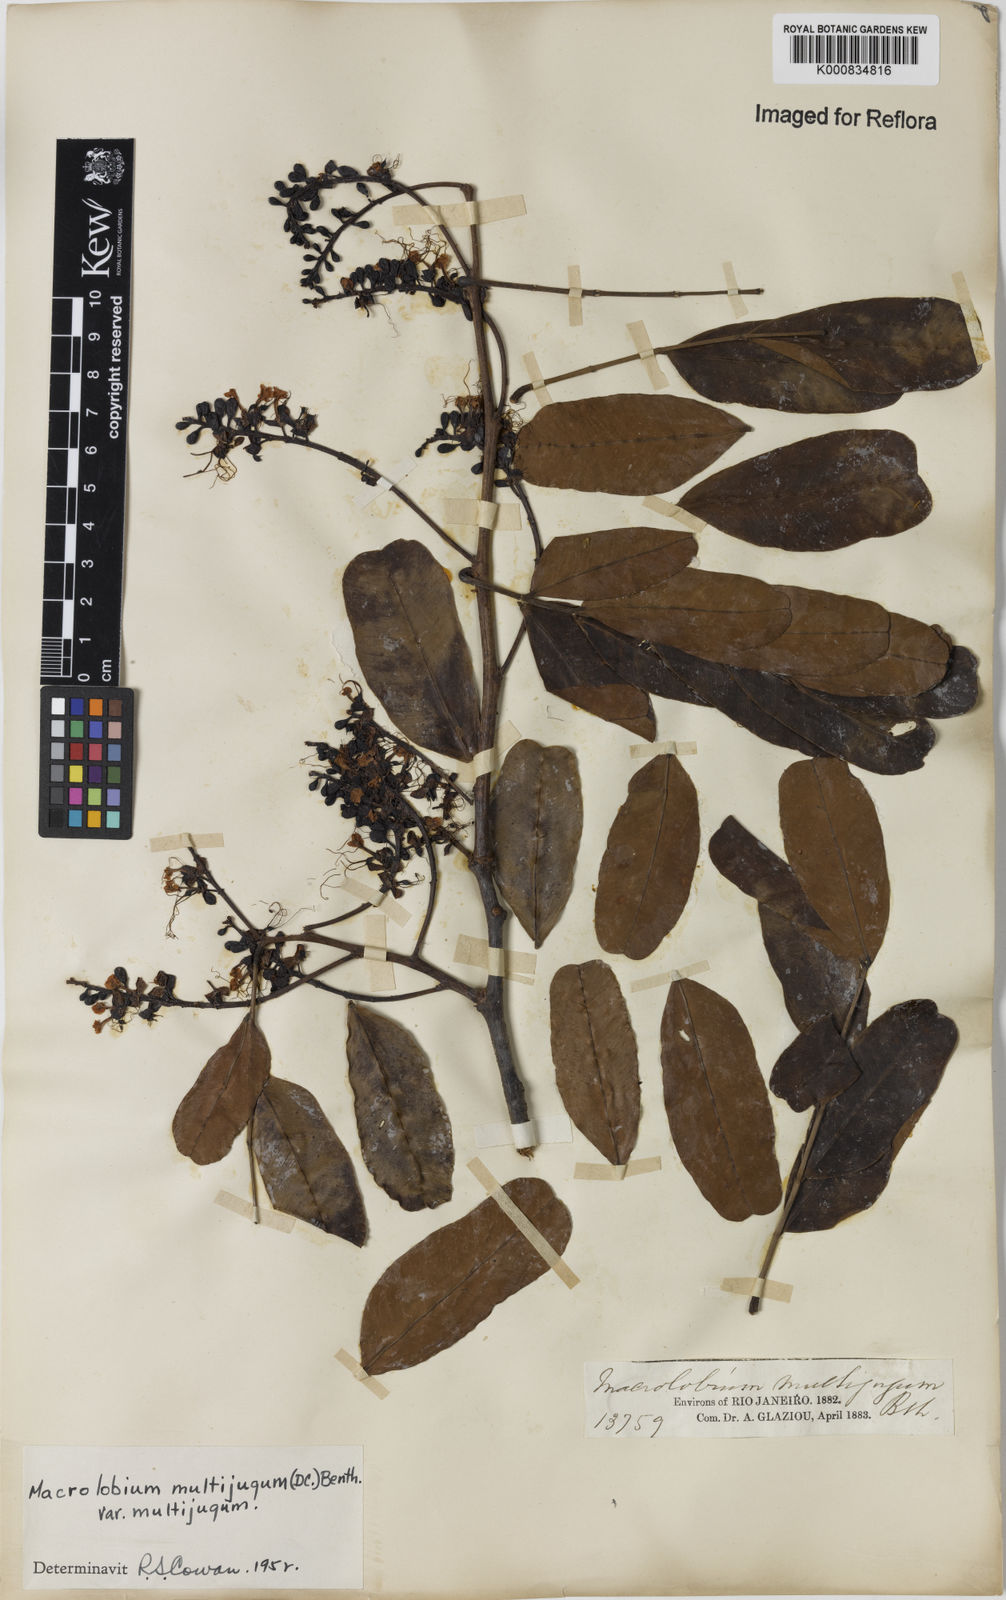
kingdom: Plantae
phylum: Tracheophyta
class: Magnoliopsida
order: Fabales
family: Fabaceae
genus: Macrolobium
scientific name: Macrolobium multijugum
